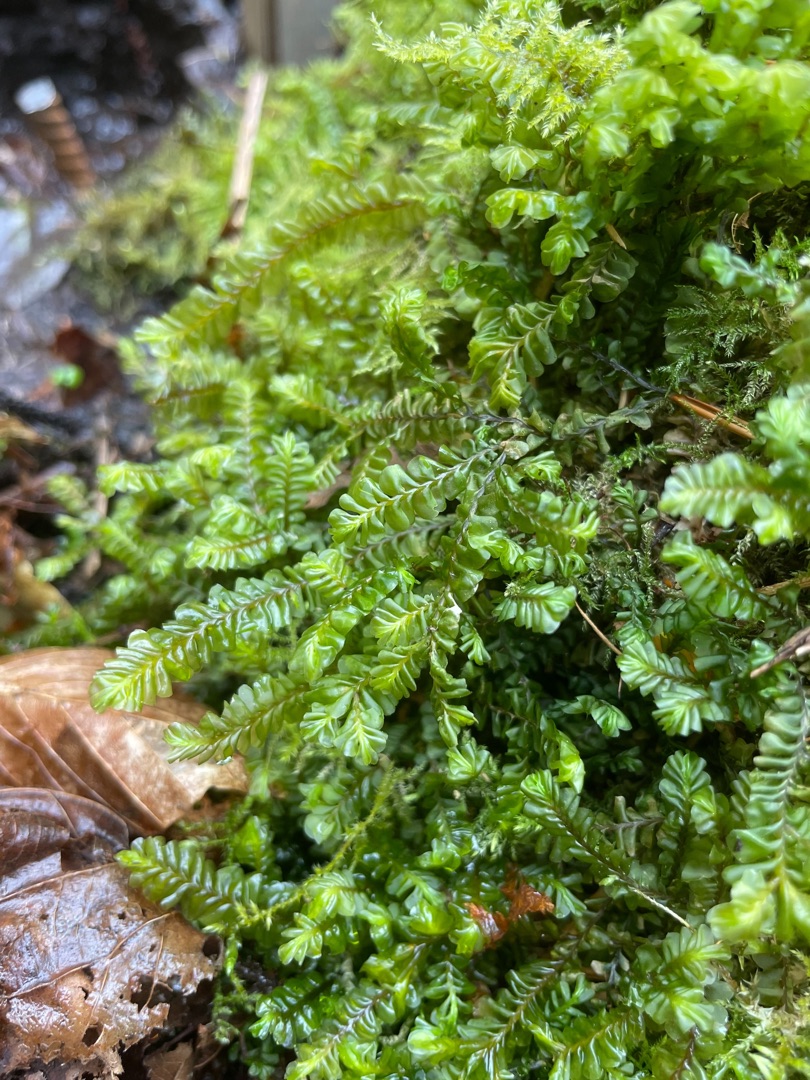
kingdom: Plantae
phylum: Marchantiophyta
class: Jungermanniopsida
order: Jungermanniales
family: Plagiochilaceae
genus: Plagiochila
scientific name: Plagiochila asplenioides
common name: Radeløv-hindeblad
